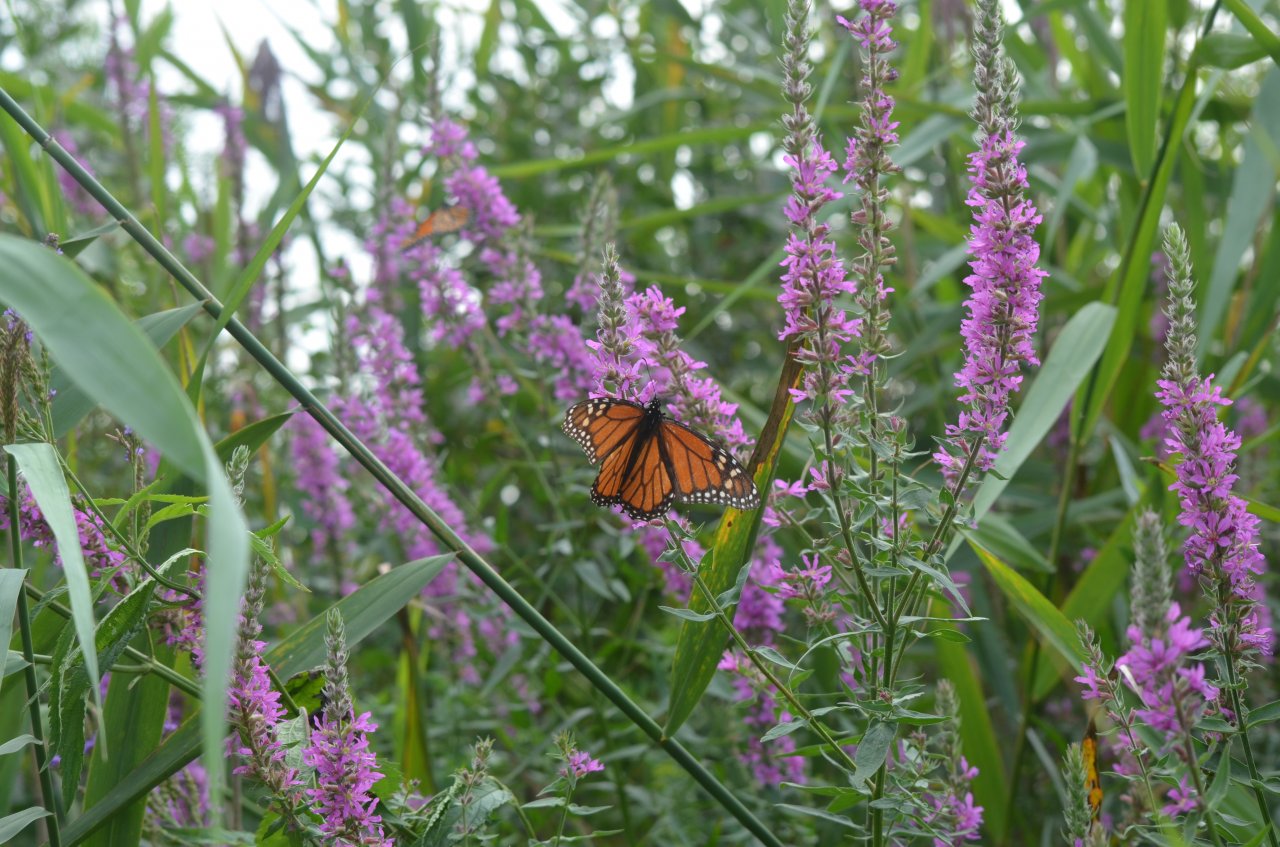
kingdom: Animalia
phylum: Arthropoda
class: Insecta
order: Lepidoptera
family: Nymphalidae
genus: Danaus
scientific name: Danaus plexippus
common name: Monarch
